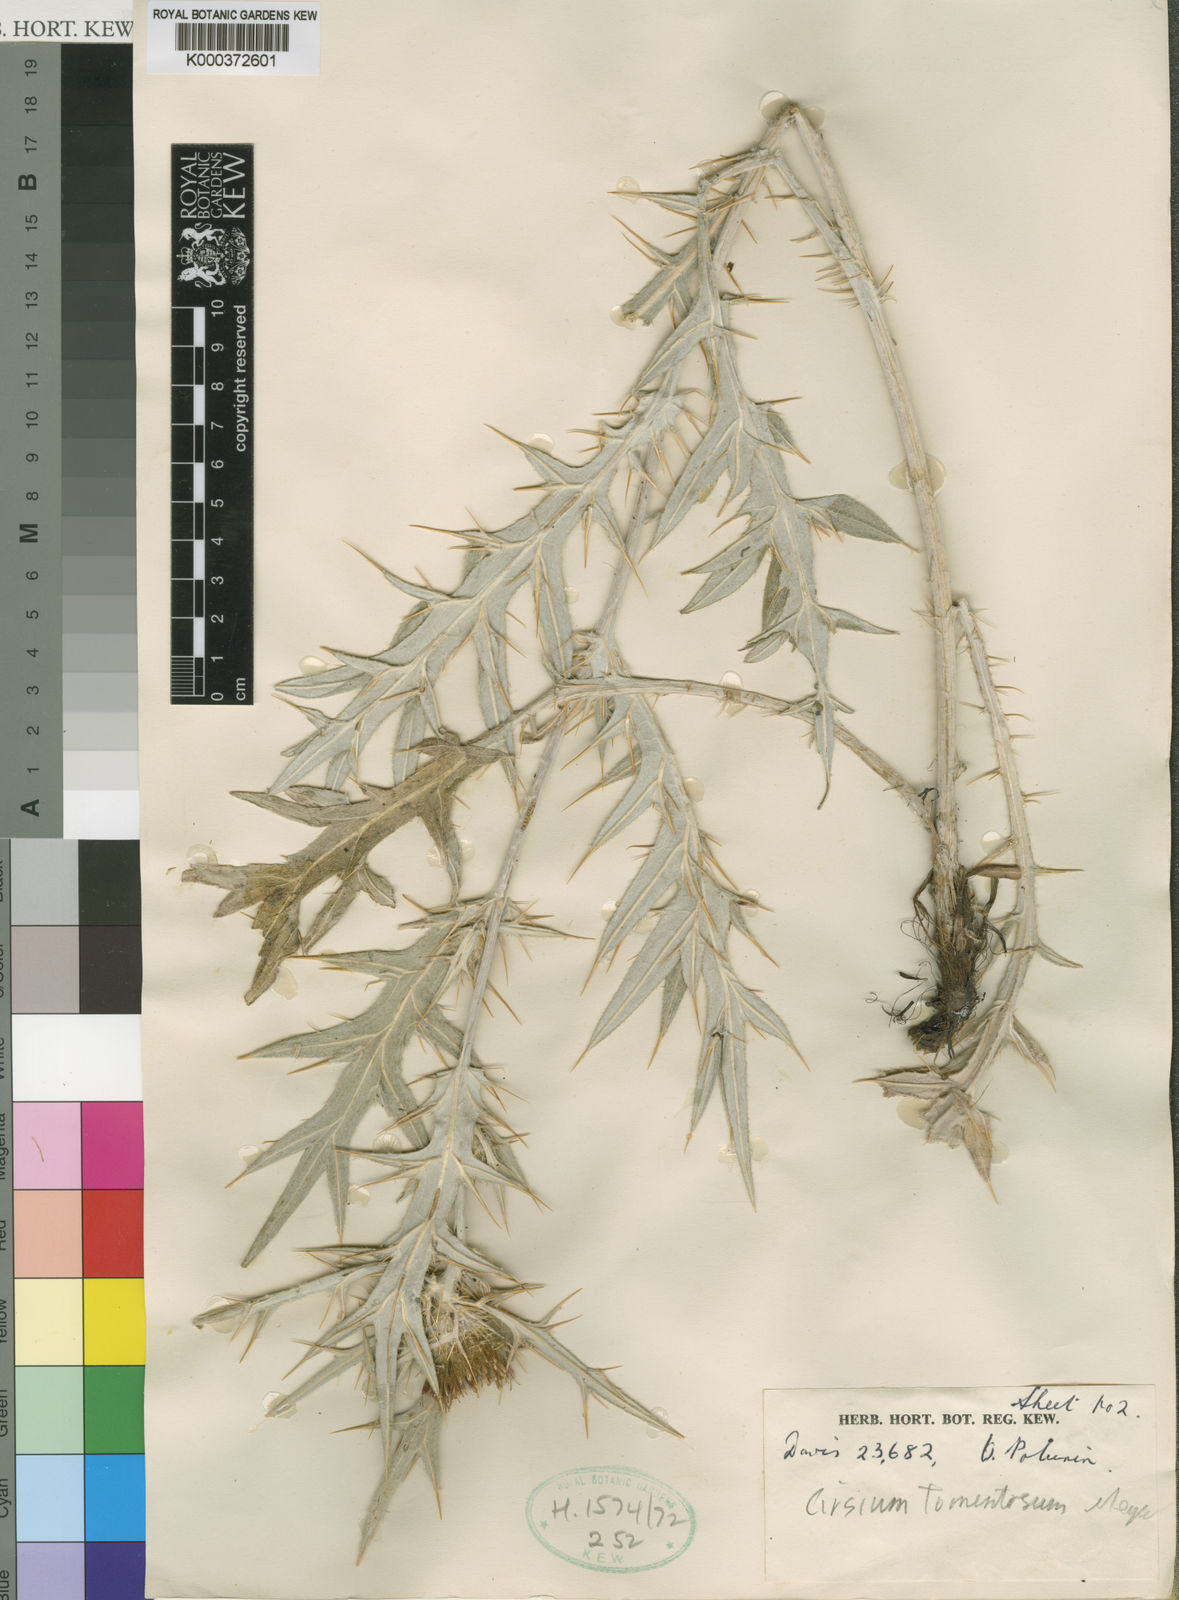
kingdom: Plantae
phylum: Tracheophyta
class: Magnoliopsida
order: Asterales
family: Asteraceae
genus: Lophiolepis
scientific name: Lophiolepis isophylla
